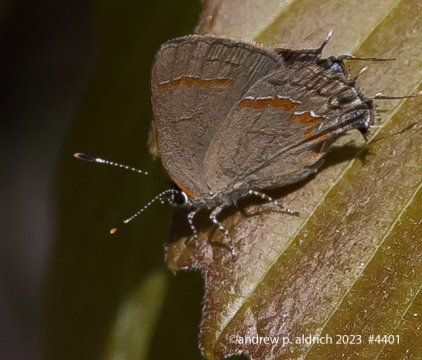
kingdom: Animalia
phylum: Arthropoda
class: Insecta
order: Lepidoptera
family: Lycaenidae
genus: Calycopis
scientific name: Calycopis cecrops
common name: Red-banded Hairstreak
